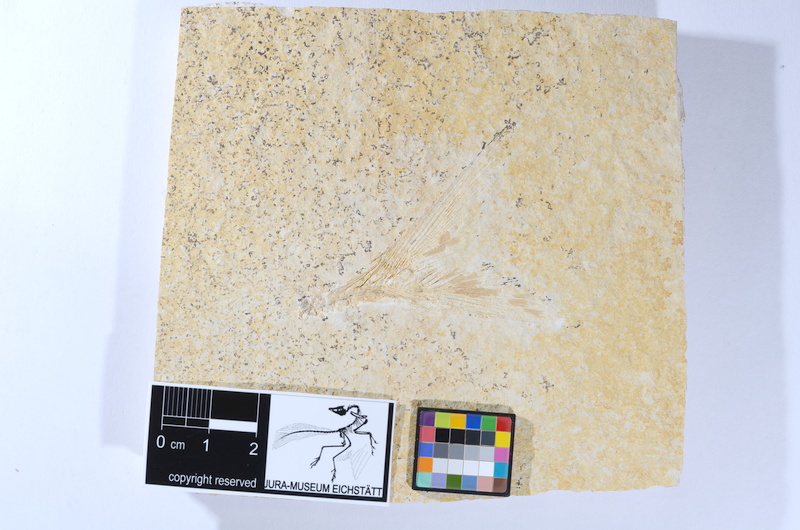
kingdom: Animalia
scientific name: Animalia
